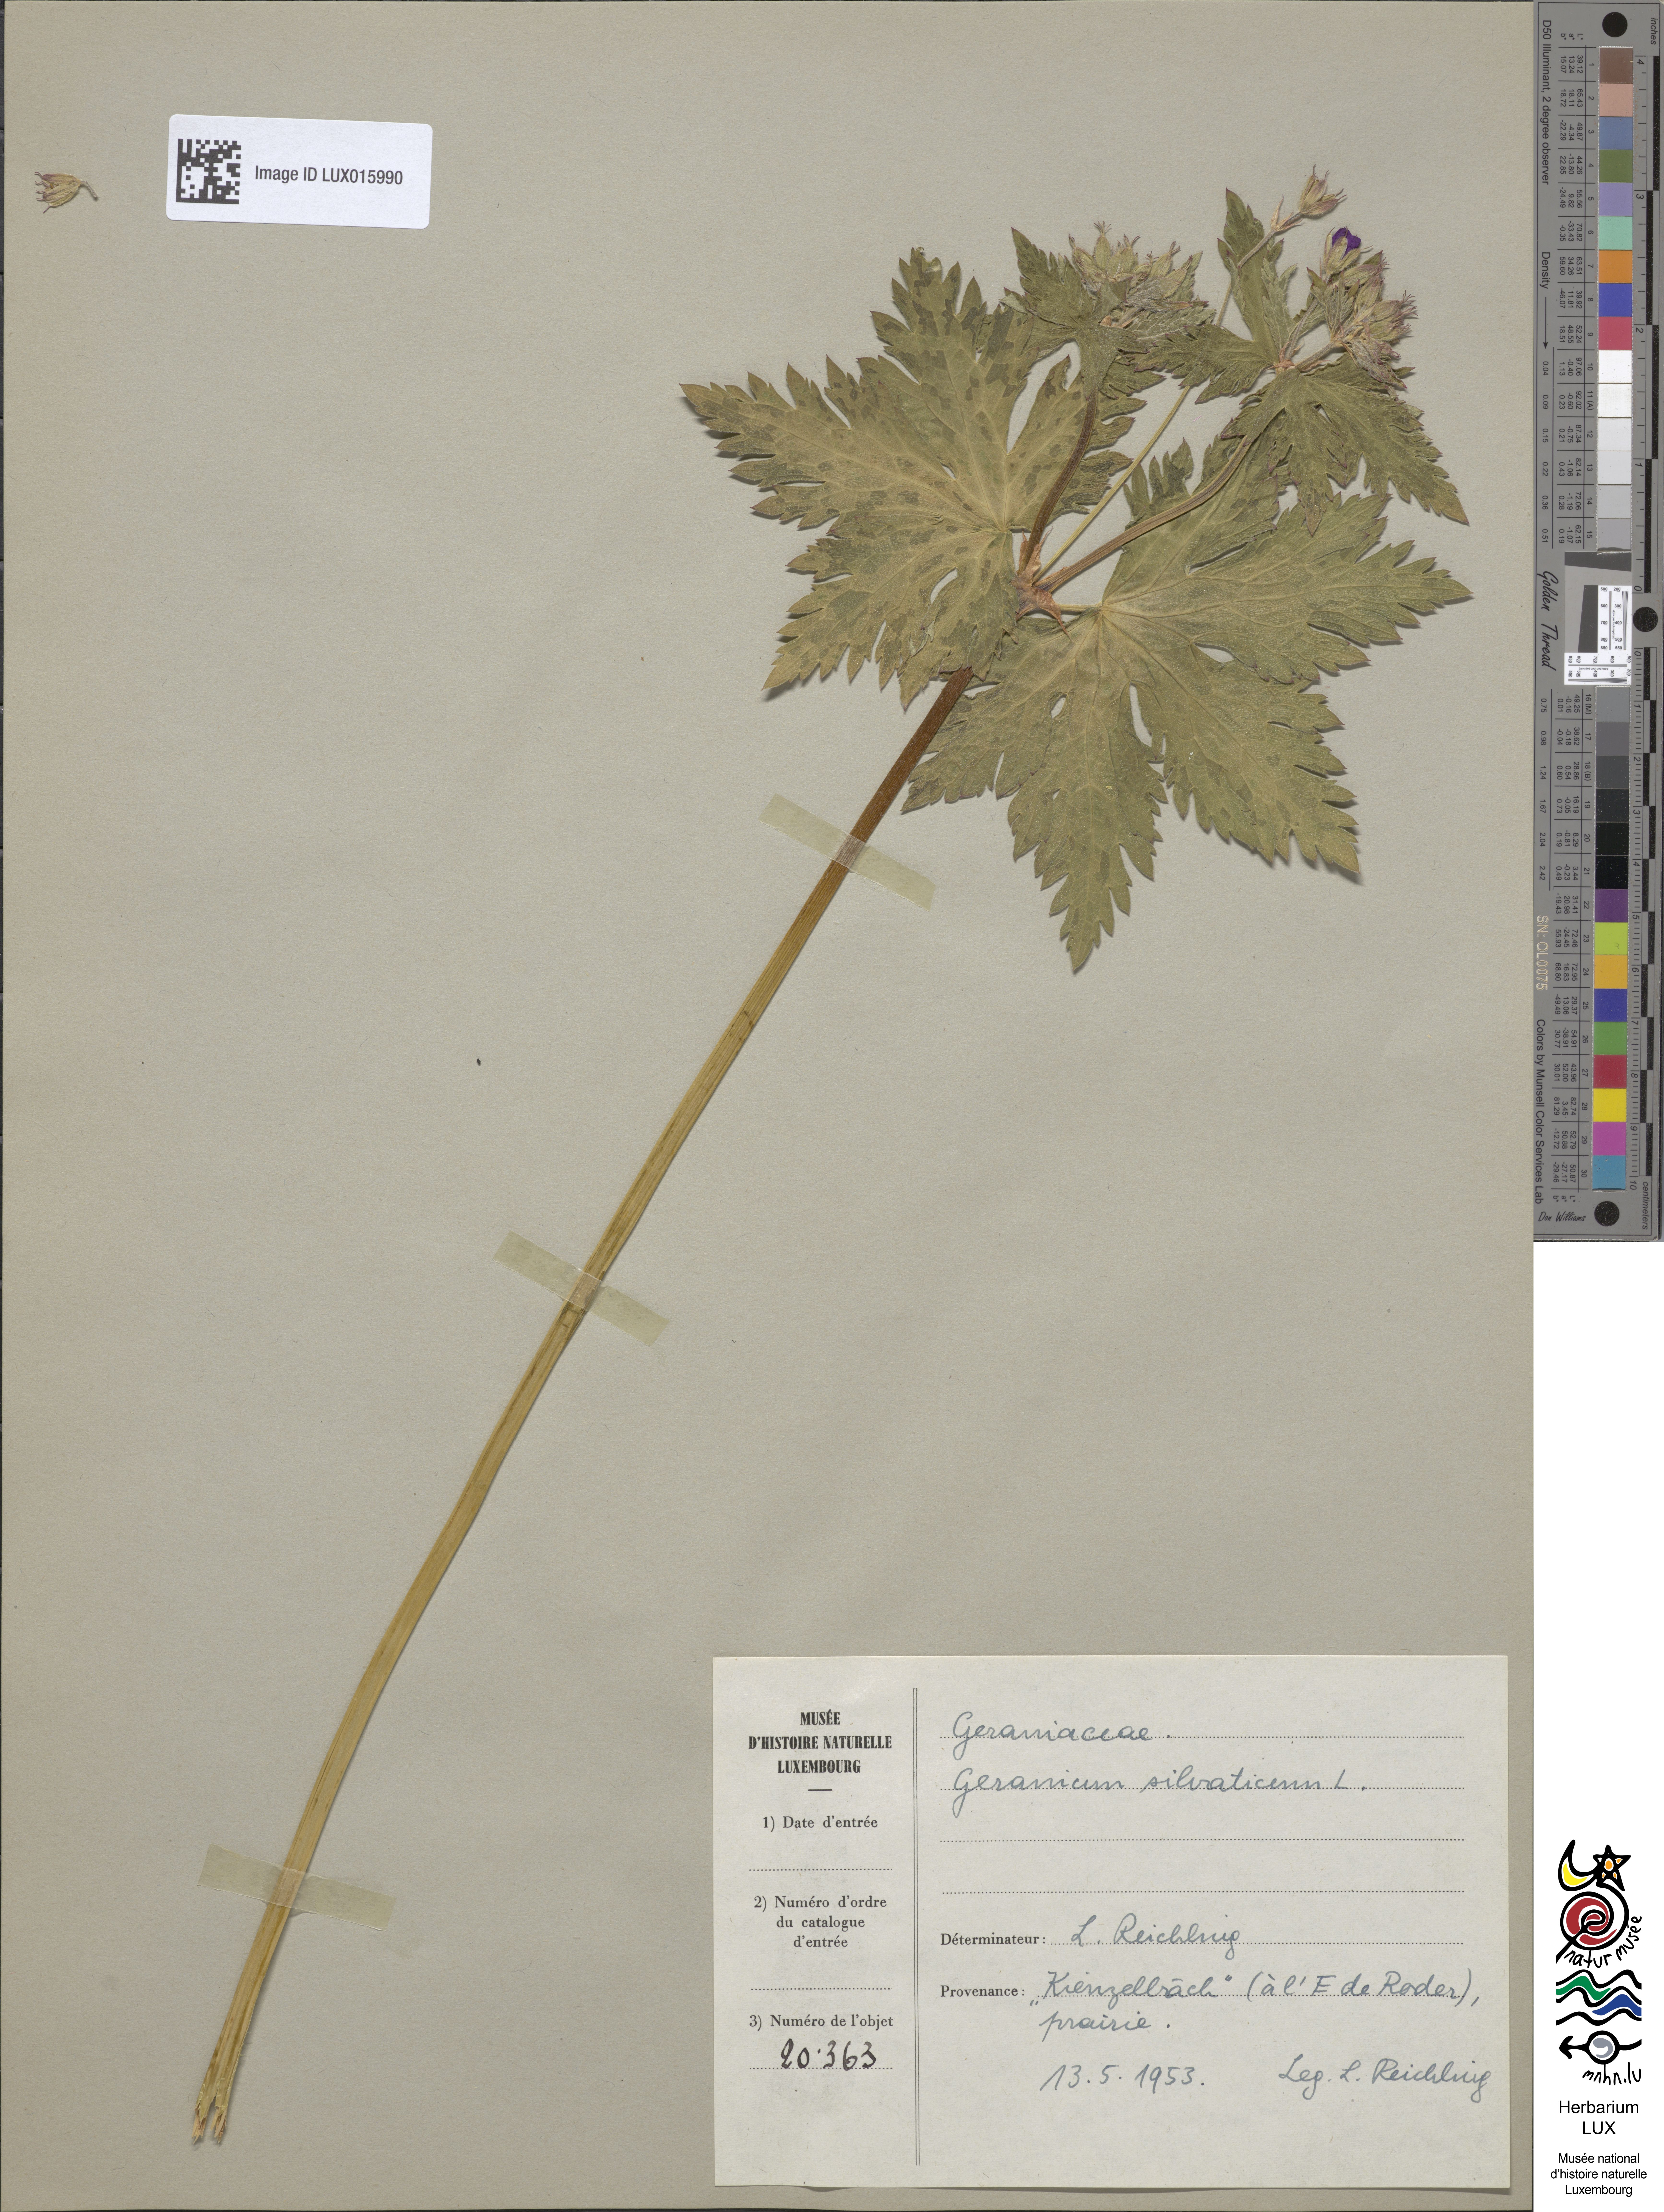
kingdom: Plantae
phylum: Tracheophyta
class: Magnoliopsida
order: Geraniales
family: Geraniaceae
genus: Geranium
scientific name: Geranium sylvaticum
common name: Wood crane's-bill
